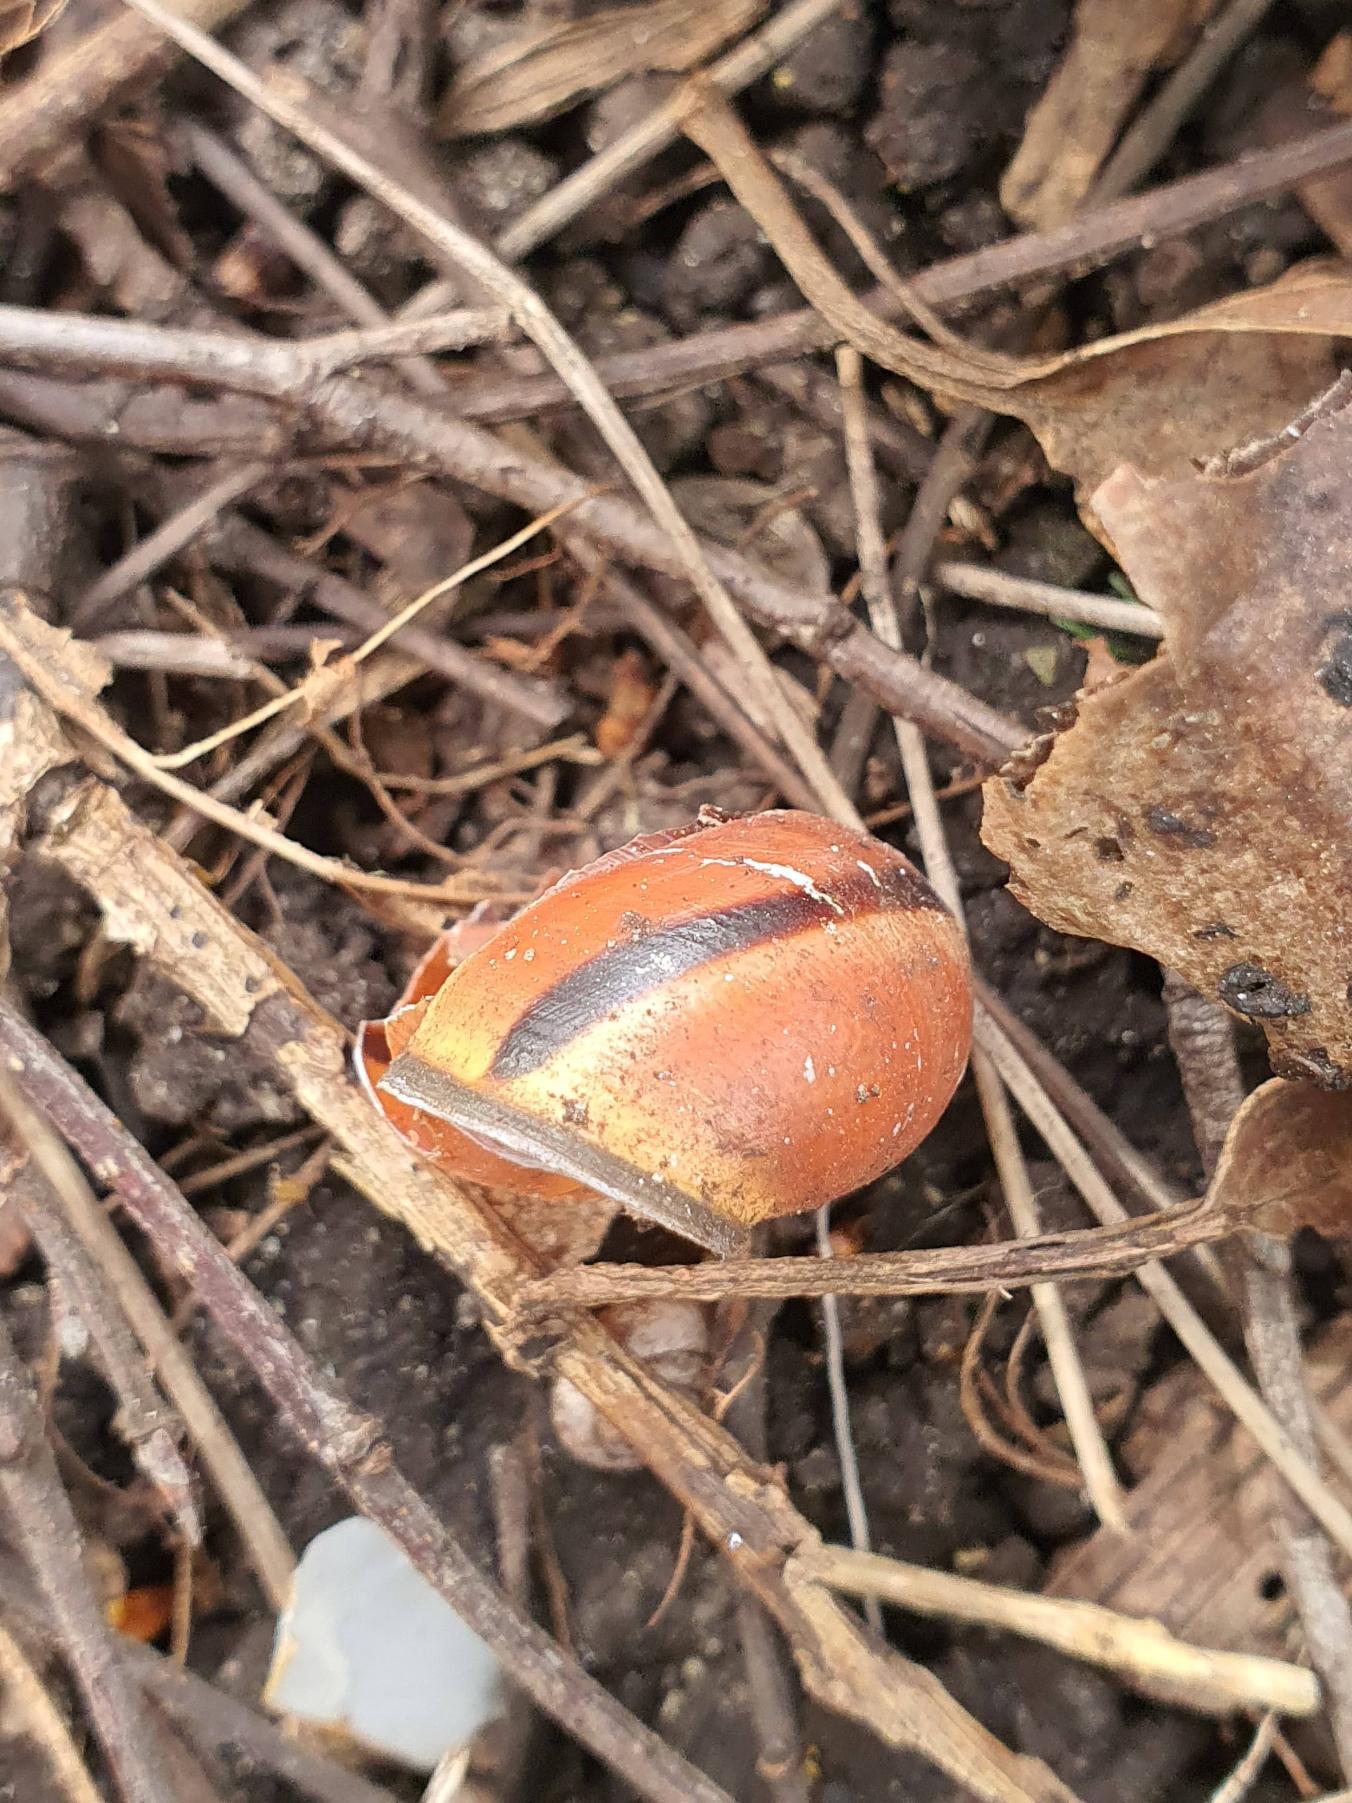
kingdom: Animalia
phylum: Mollusca
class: Gastropoda
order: Stylommatophora
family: Helicidae
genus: Cepaea
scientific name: Cepaea nemoralis
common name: Lundsnegl
